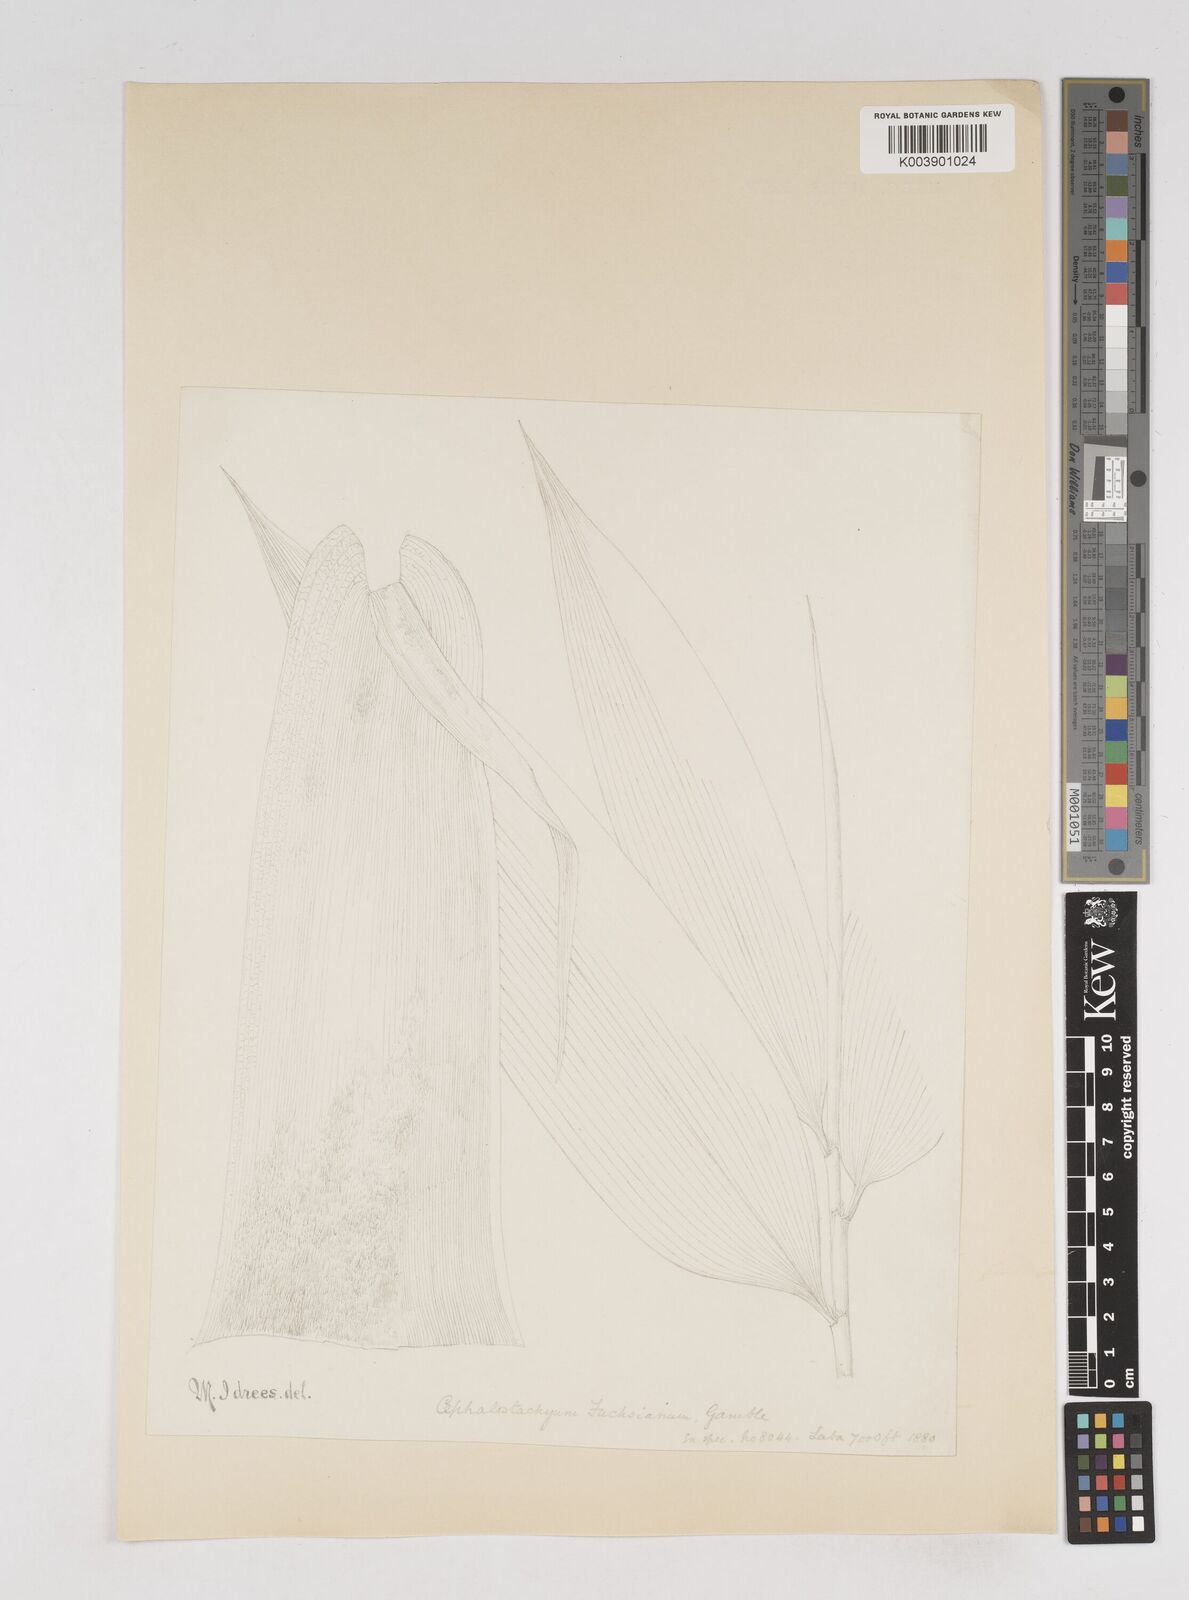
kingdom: Plantae
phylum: Tracheophyta
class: Liliopsida
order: Poales
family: Poaceae
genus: Cephalostachyum
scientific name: Cephalostachyum latifolium
